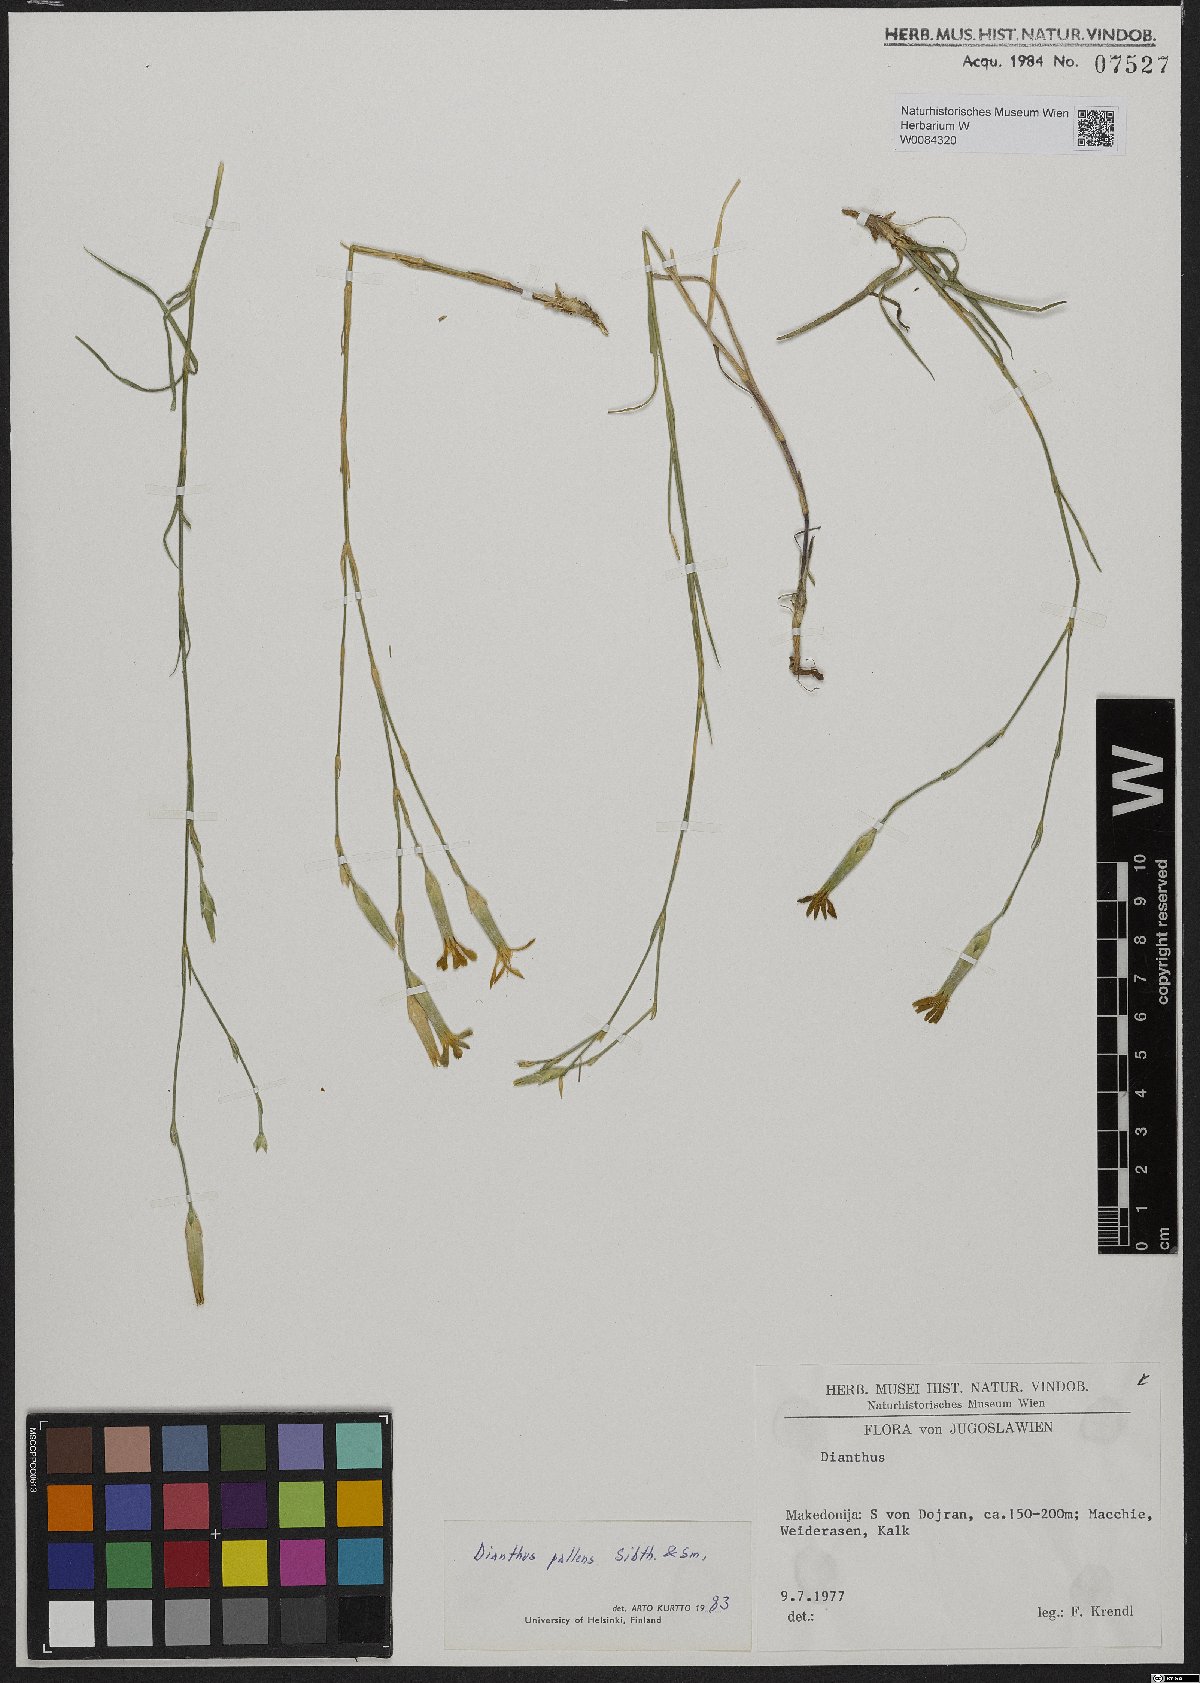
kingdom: Plantae
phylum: Tracheophyta
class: Magnoliopsida
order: Caryophyllales
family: Caryophyllaceae
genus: Dianthus
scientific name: Dianthus monadelphus
